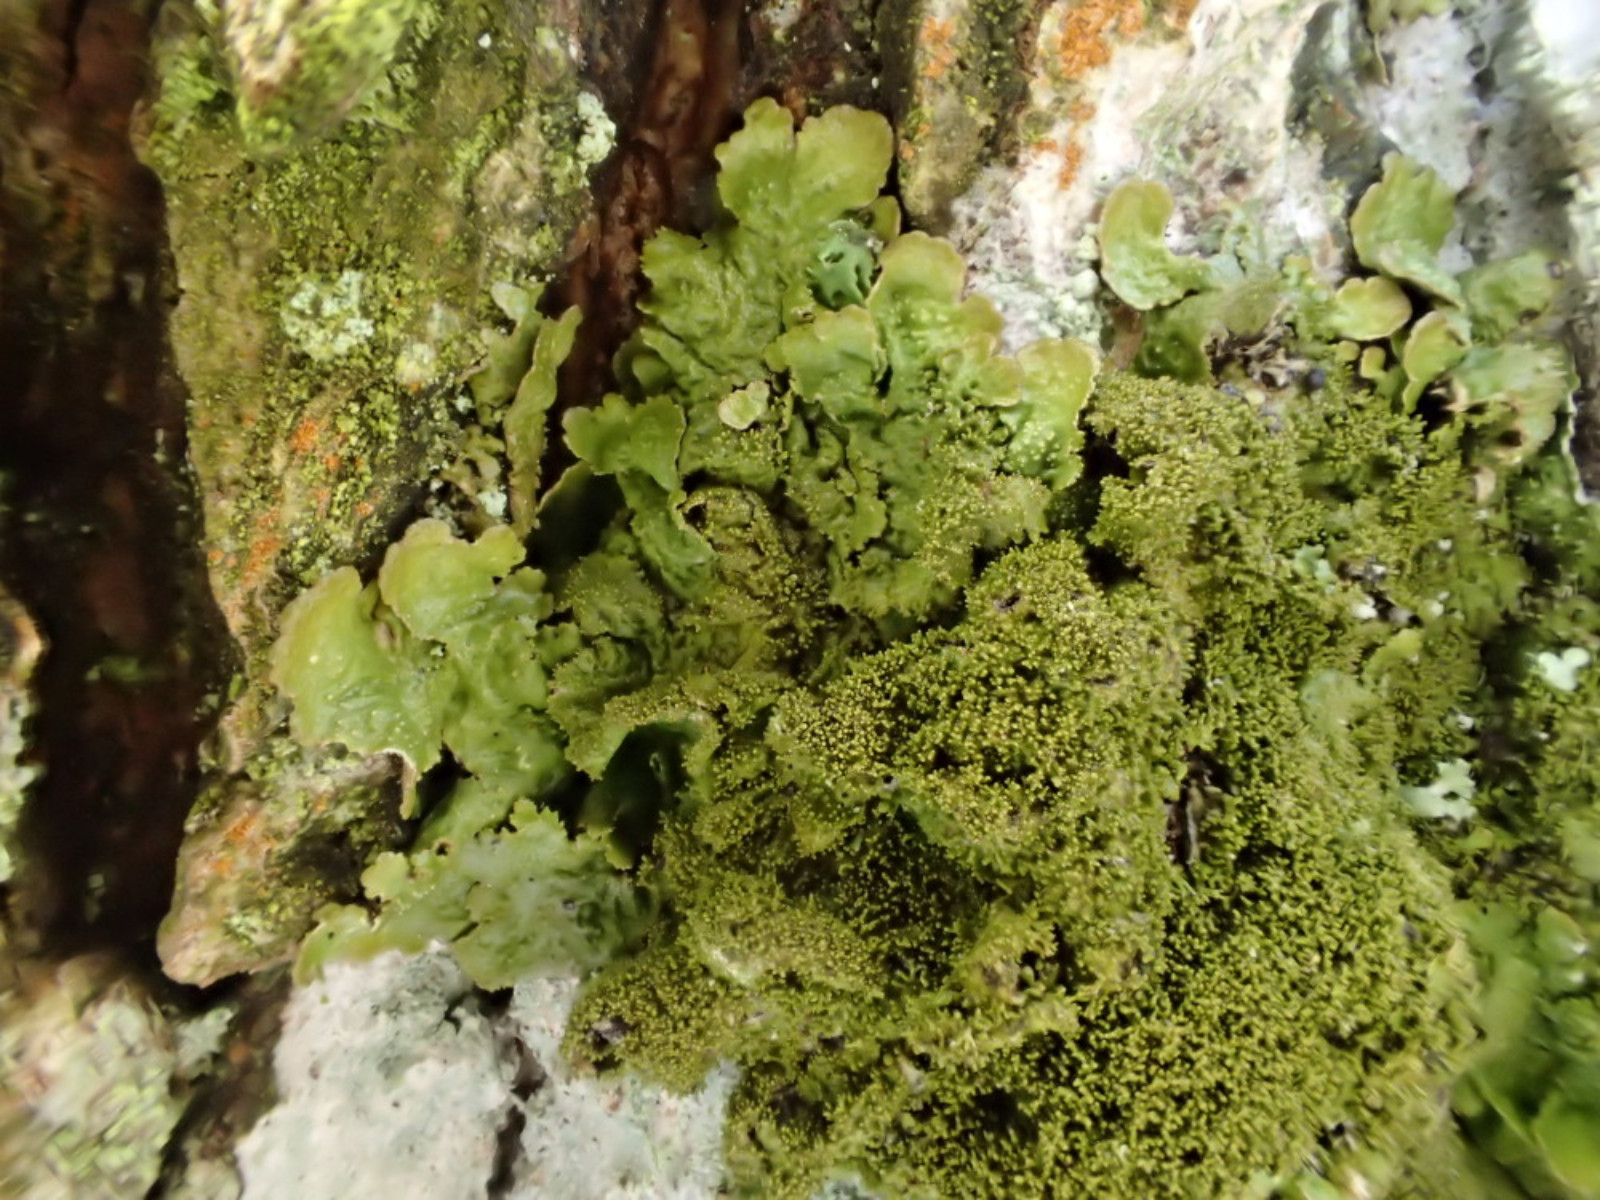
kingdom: Fungi
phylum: Ascomycota
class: Lecanoromycetes
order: Lecanorales
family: Parmeliaceae
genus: Melanelixia
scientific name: Melanelixia glabratula
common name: glinsende skållav
